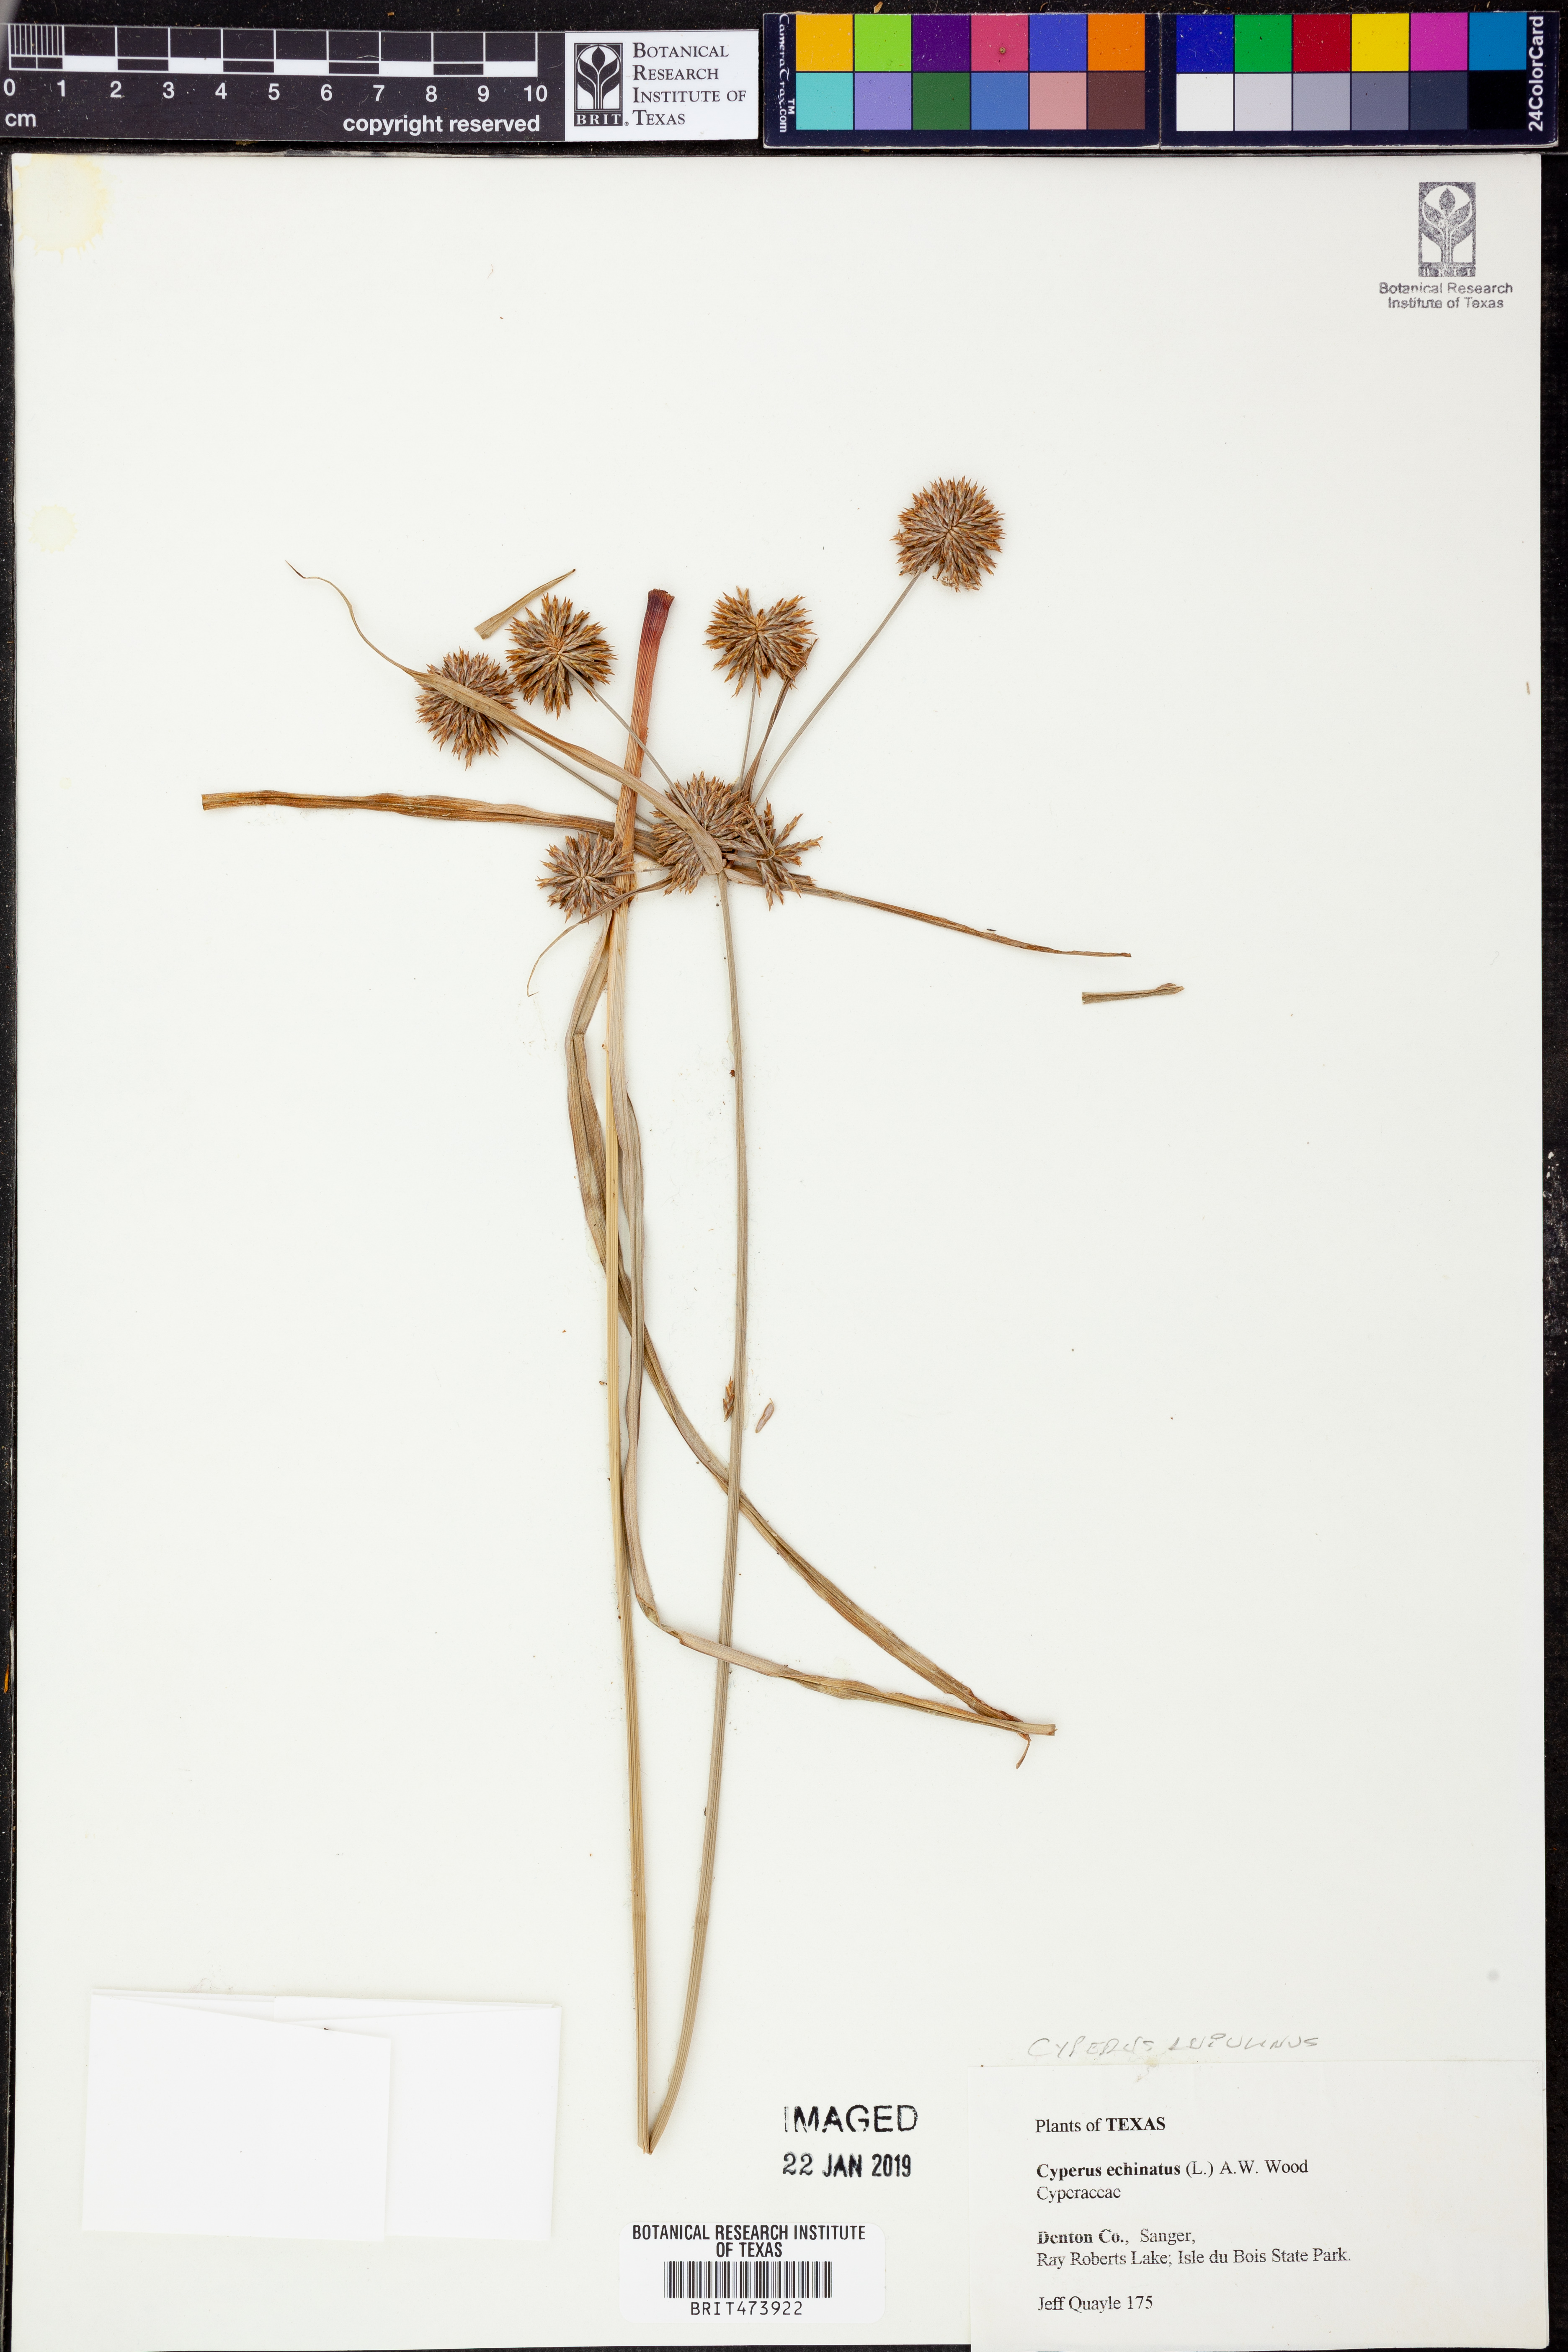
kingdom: Plantae
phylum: Tracheophyta
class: Liliopsida
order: Poales
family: Cyperaceae
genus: Cyperus
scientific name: Cyperus lupulinus
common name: Great plains flatsedge
